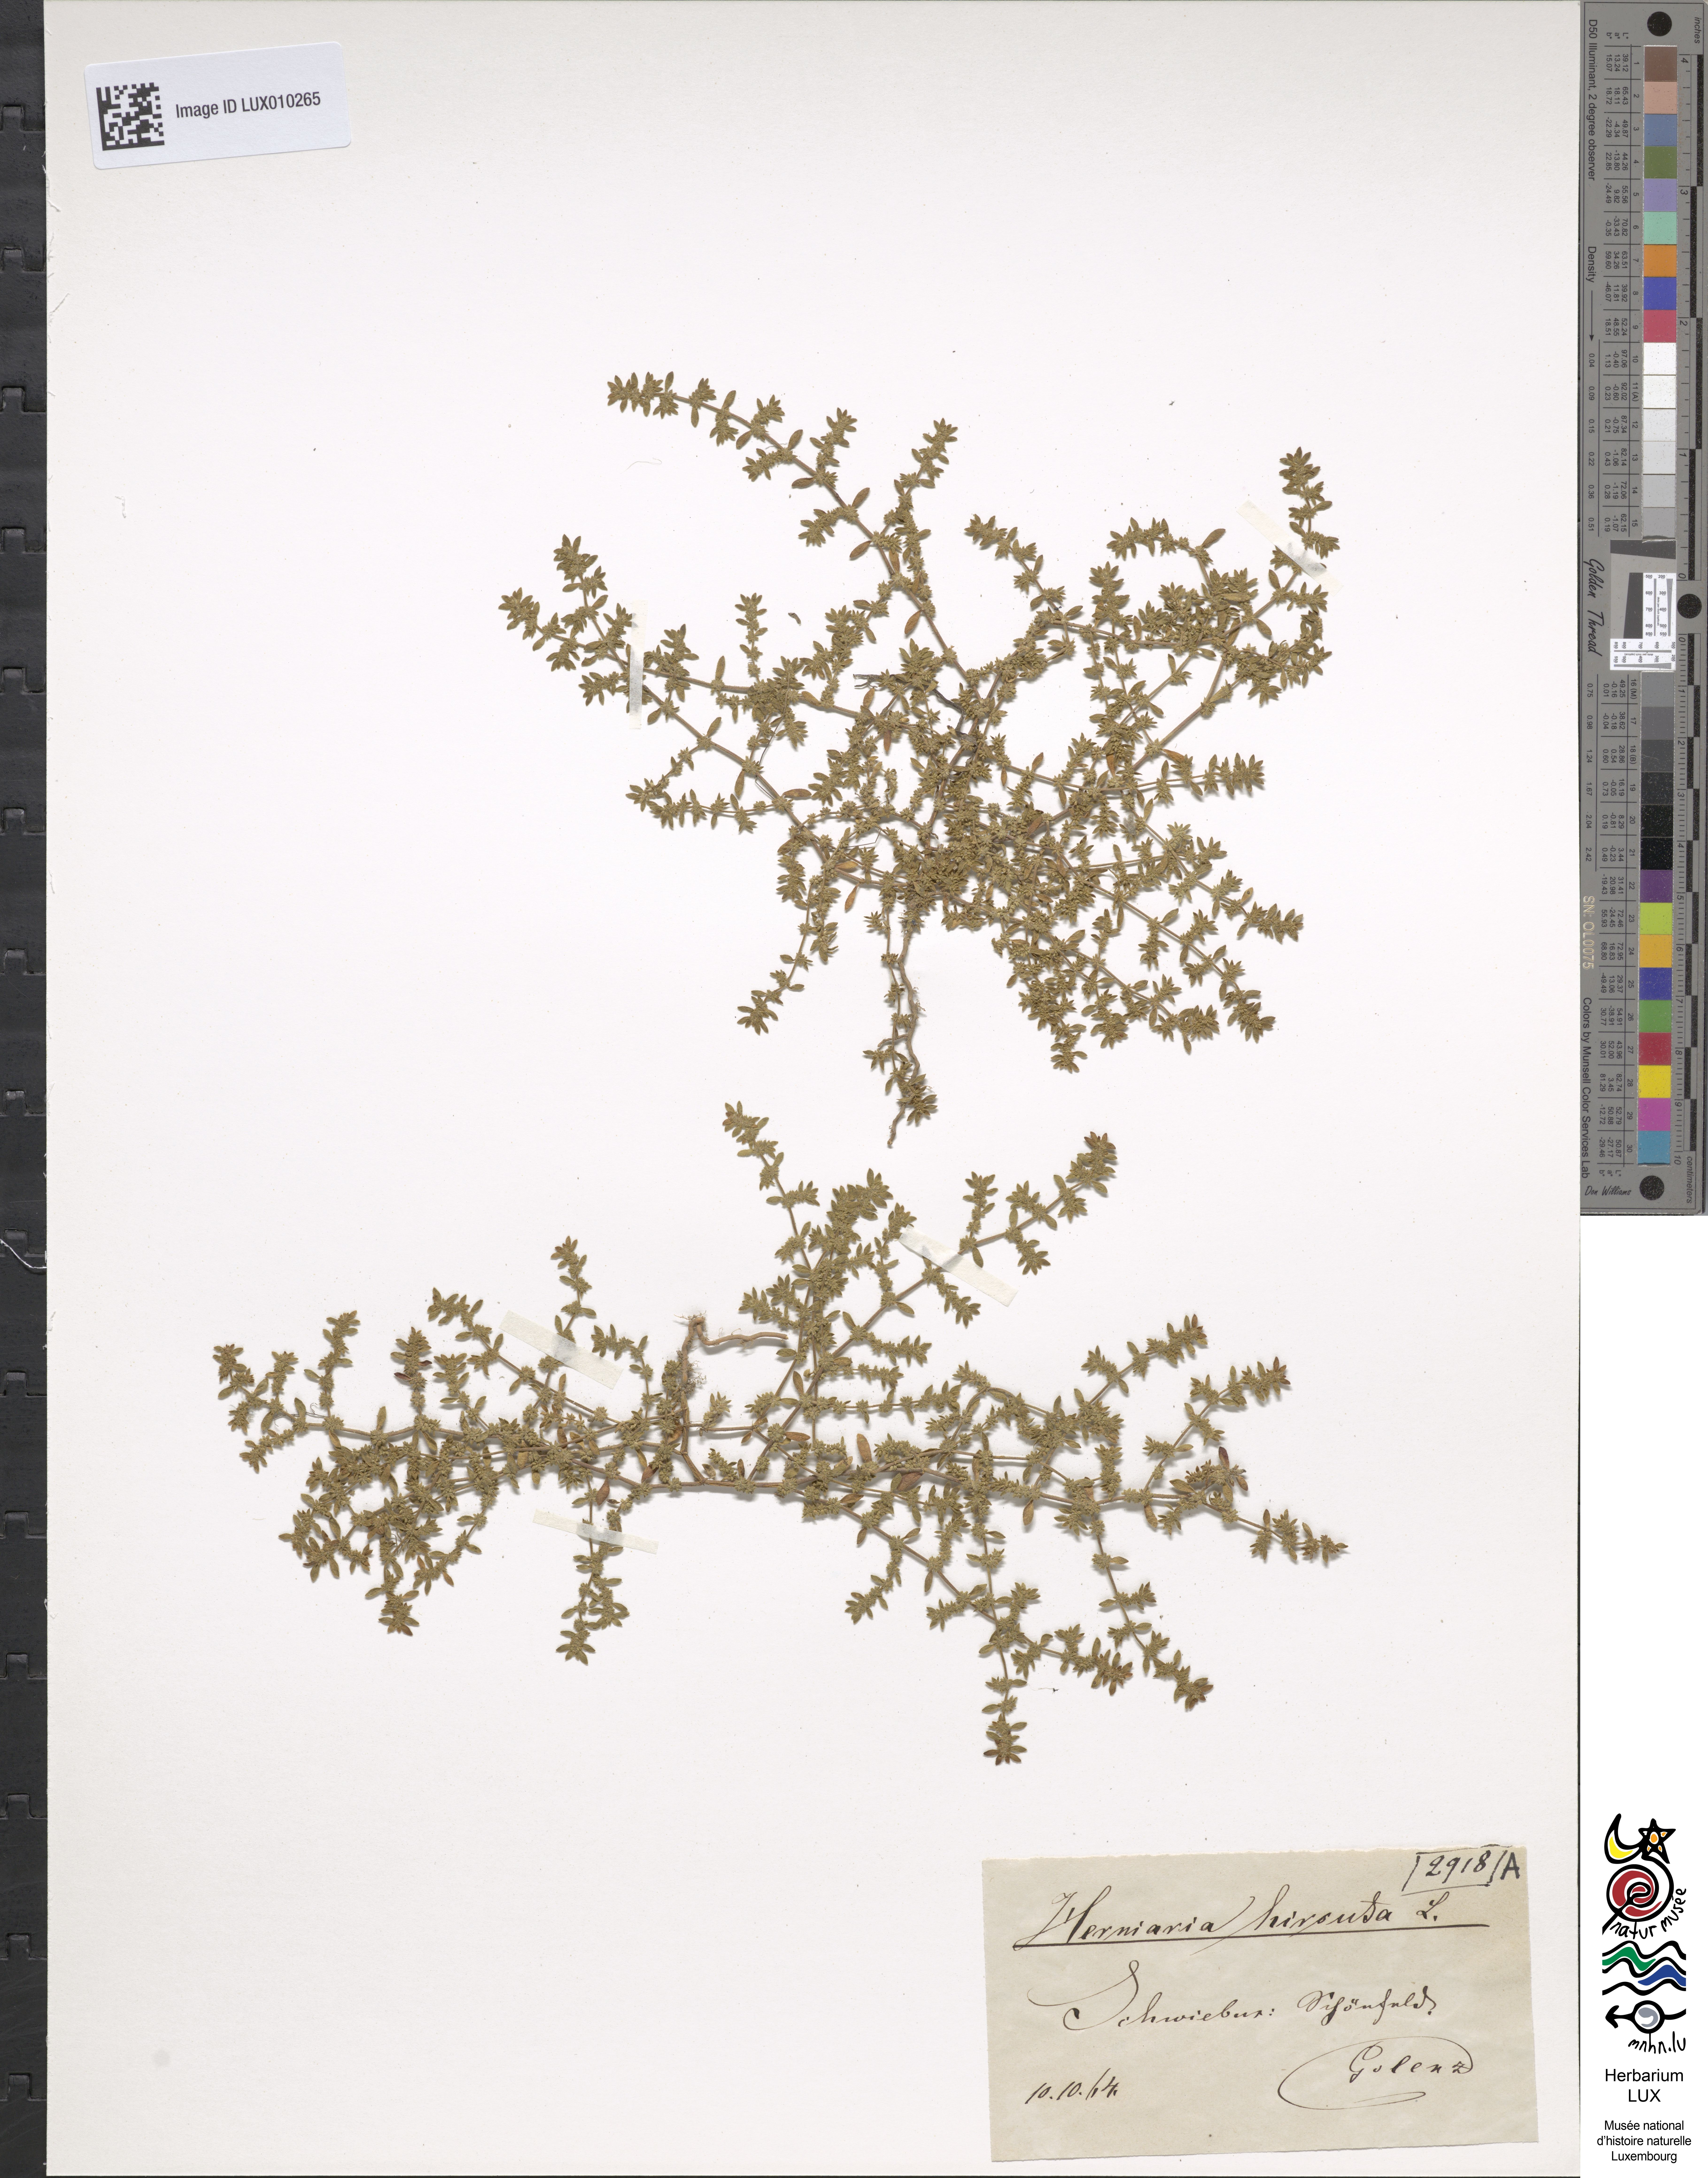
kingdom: Plantae
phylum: Tracheophyta
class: Magnoliopsida
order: Caryophyllales
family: Caryophyllaceae
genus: Herniaria
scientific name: Herniaria hirsuta
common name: Hairy rupturewort
